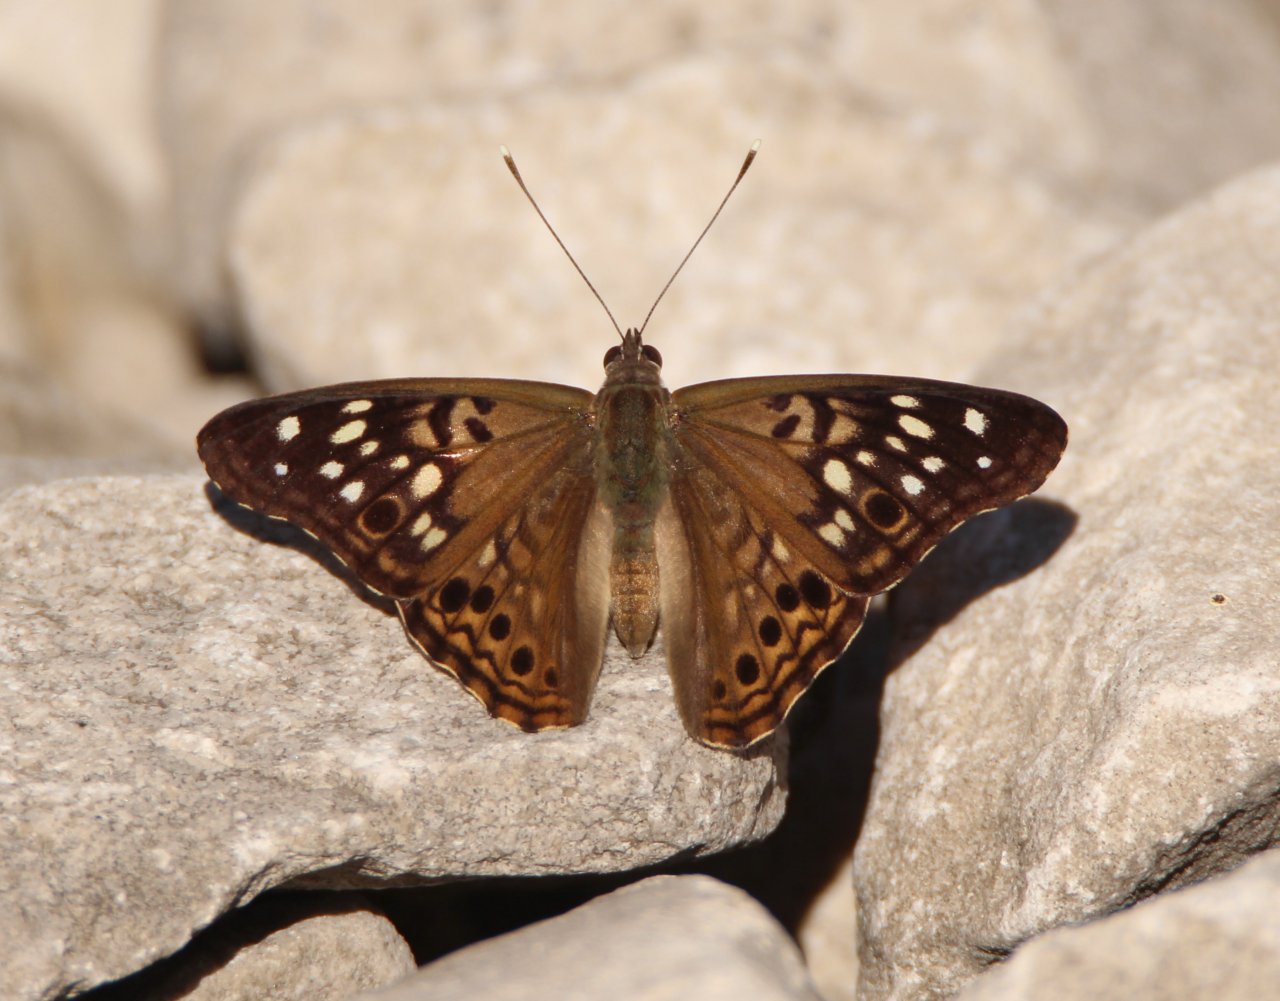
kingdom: Animalia
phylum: Arthropoda
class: Insecta
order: Lepidoptera
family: Nymphalidae
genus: Asterocampa
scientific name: Asterocampa celtis
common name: Hackberry Emperor
